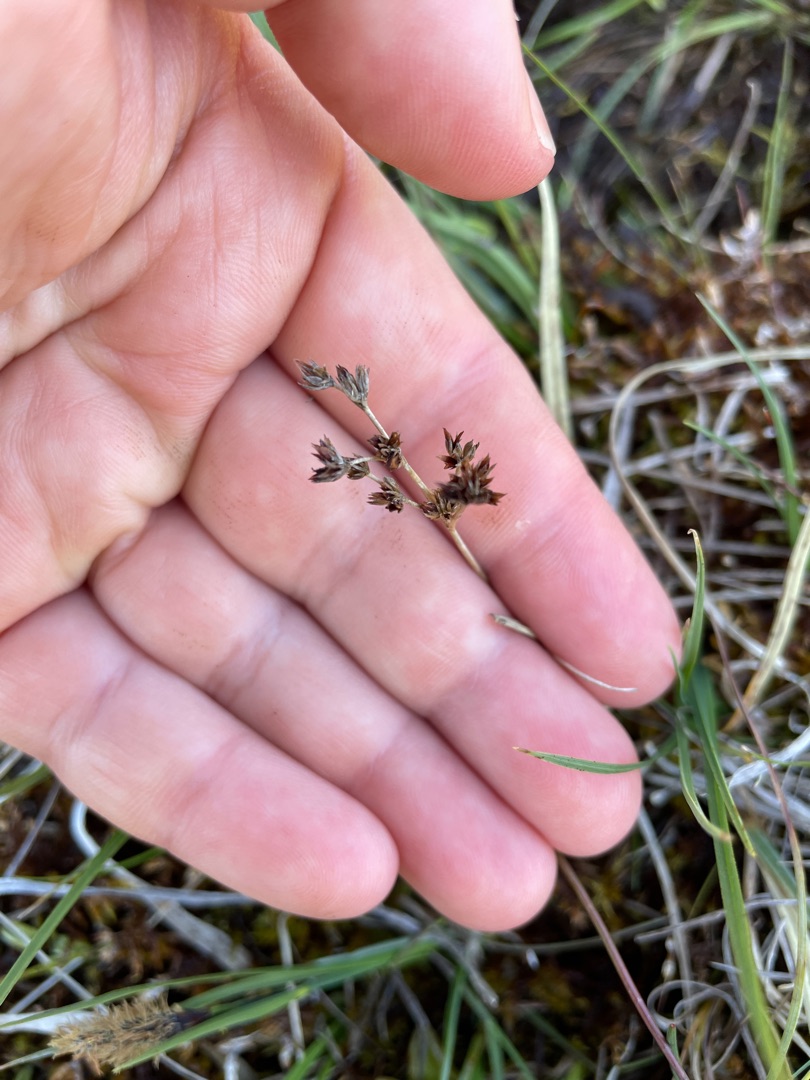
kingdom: Plantae
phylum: Tracheophyta
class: Liliopsida
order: Poales
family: Juncaceae
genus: Juncus
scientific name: Juncus articulatus
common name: Glanskapslet siv
